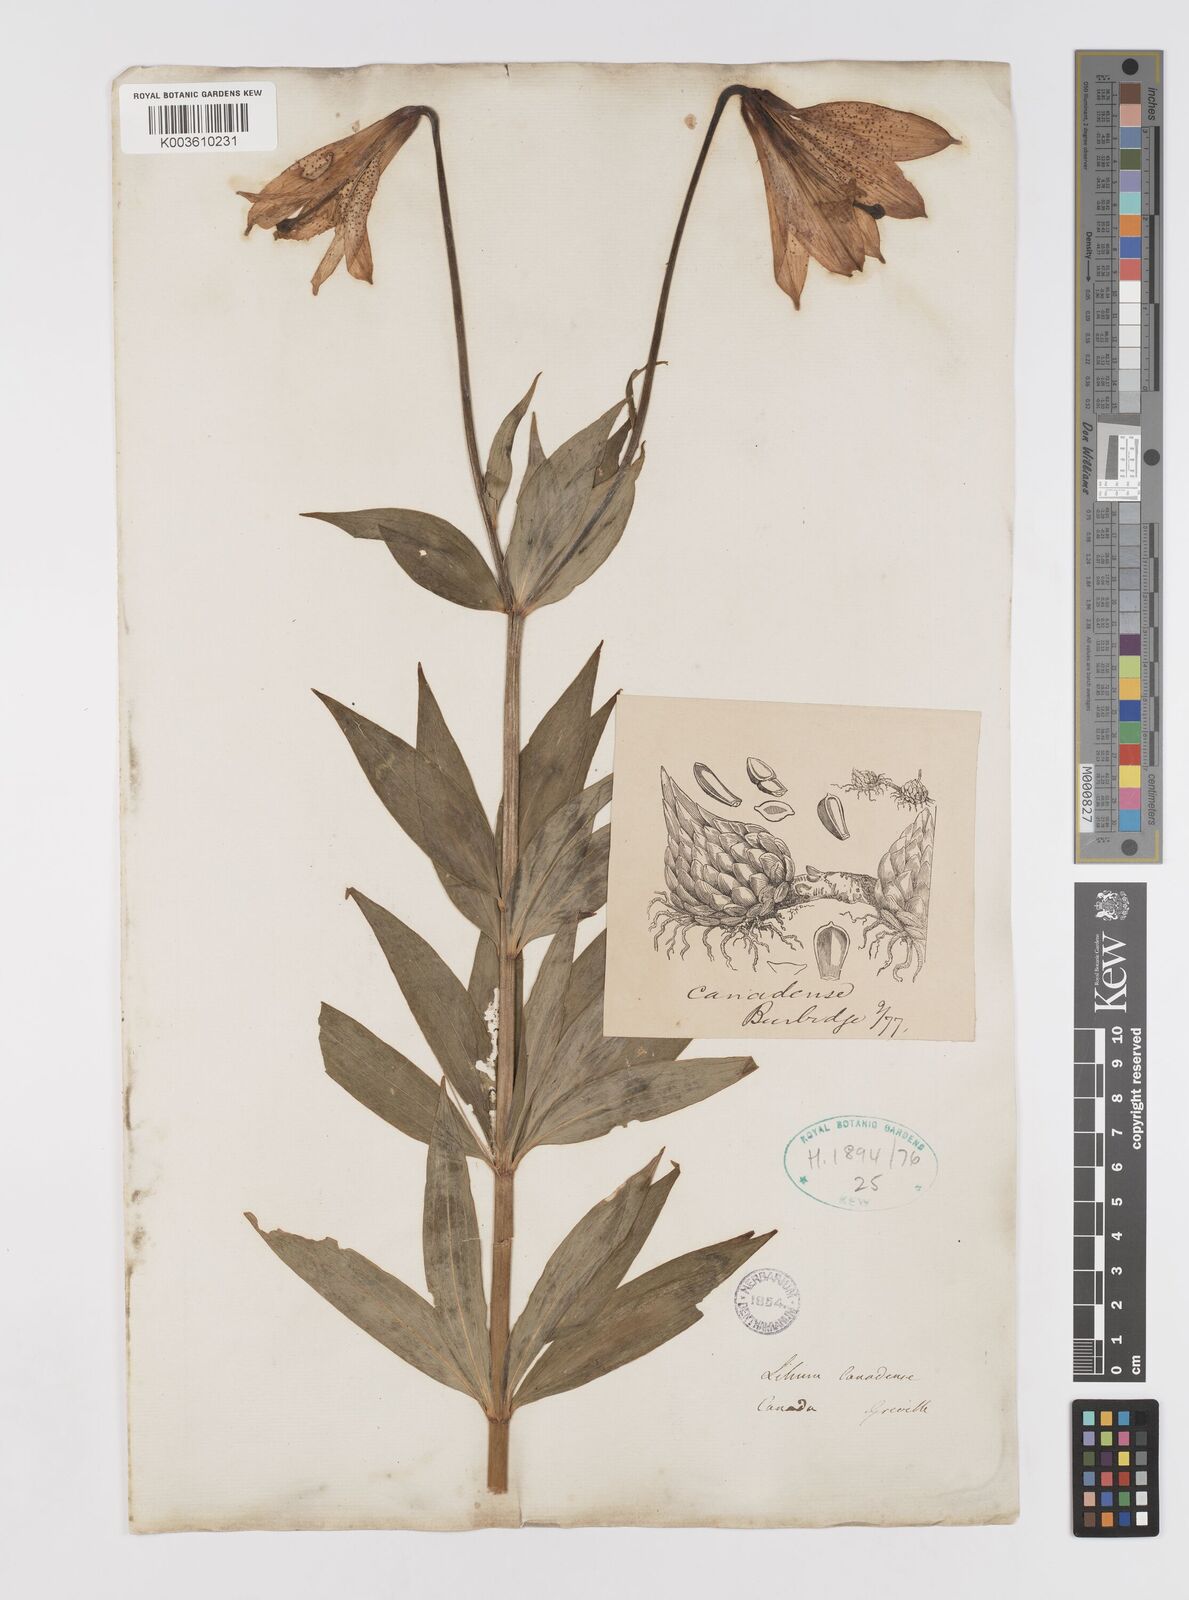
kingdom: Plantae
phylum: Tracheophyta
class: Liliopsida
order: Liliales
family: Liliaceae
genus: Lilium
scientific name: Lilium canadense
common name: Canada lily
